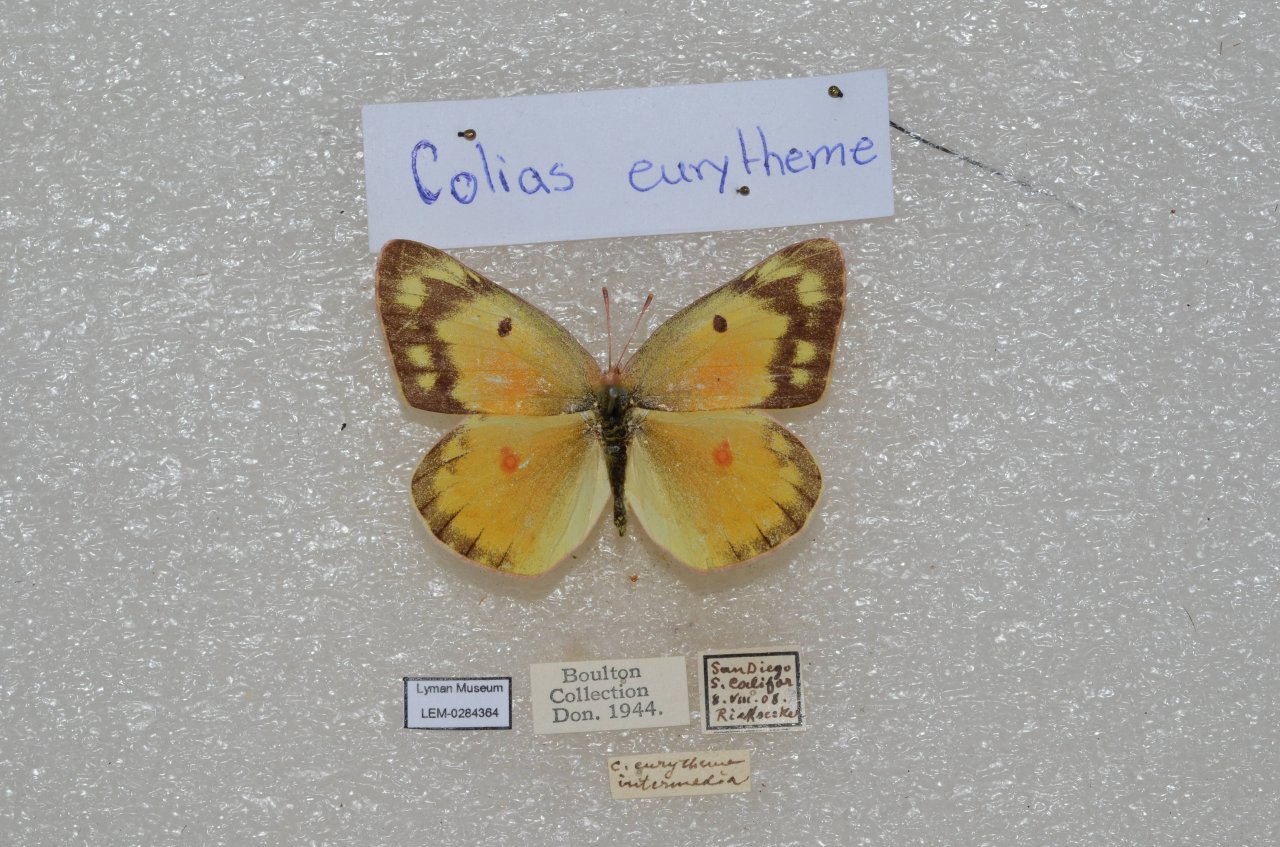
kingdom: Animalia
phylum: Arthropoda
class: Insecta
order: Lepidoptera
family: Pieridae
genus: Colias
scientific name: Colias eurytheme
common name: Orange Sulphur
